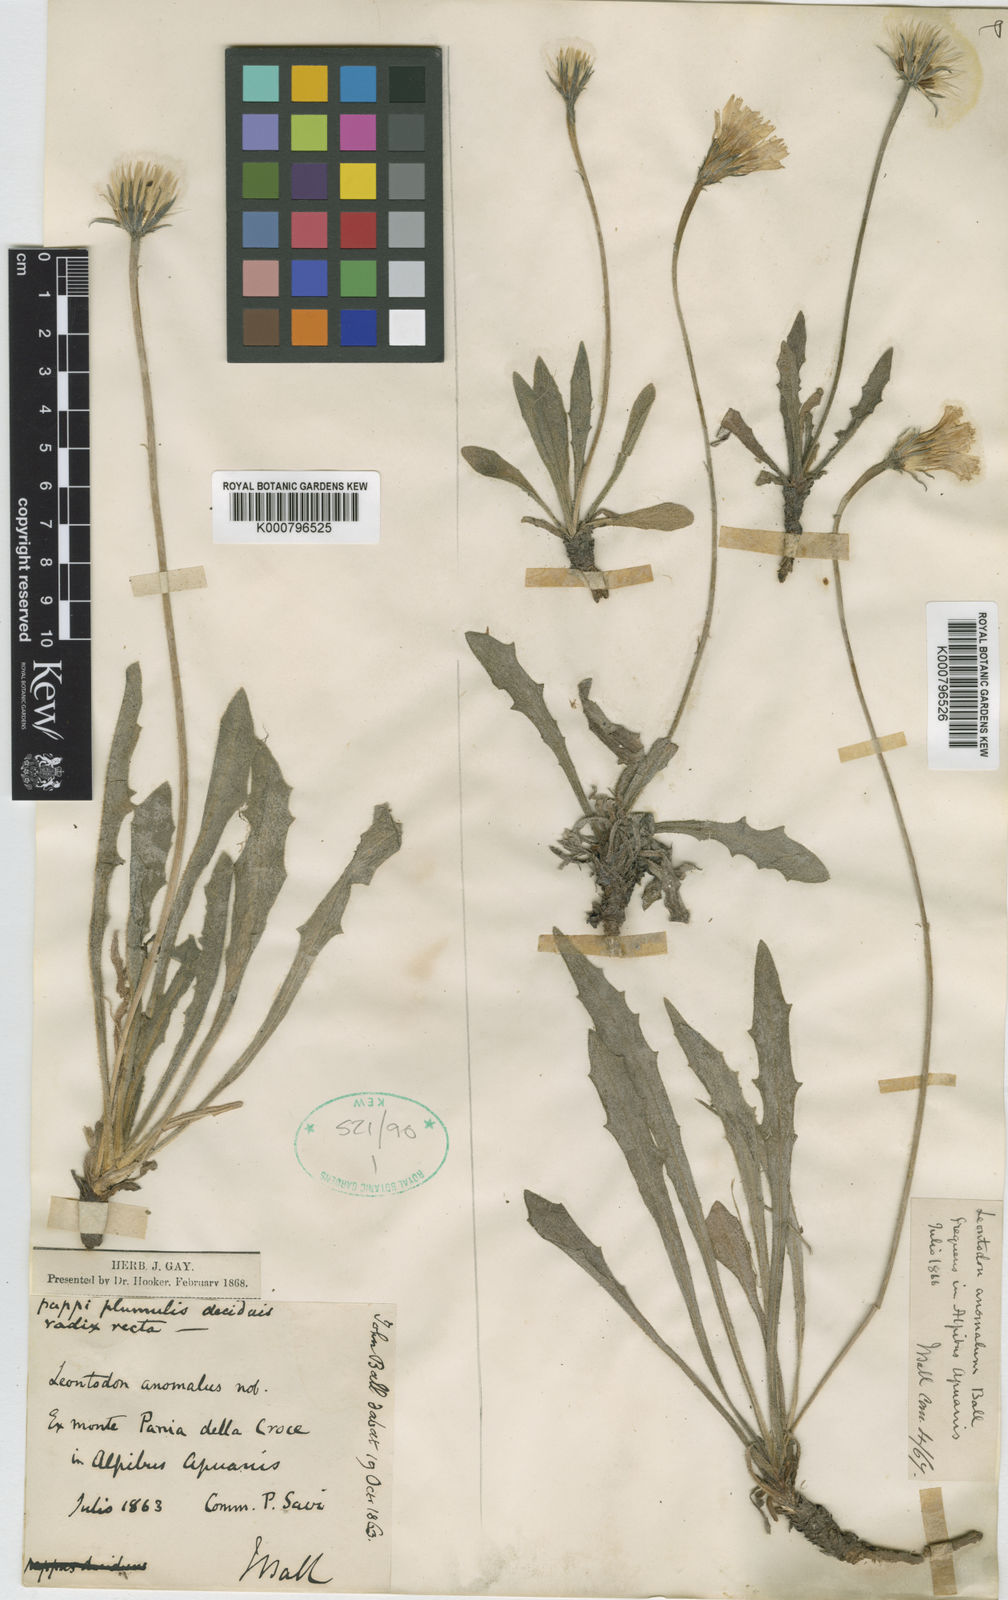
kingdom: Plantae
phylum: Tracheophyta
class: Magnoliopsida
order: Asterales
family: Asteraceae
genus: Leontodon
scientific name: Leontodon crispus
